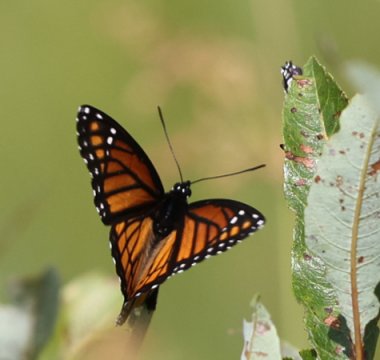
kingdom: Animalia
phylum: Arthropoda
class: Insecta
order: Lepidoptera
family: Nymphalidae
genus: Limenitis
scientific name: Limenitis archippus
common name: Viceroy
